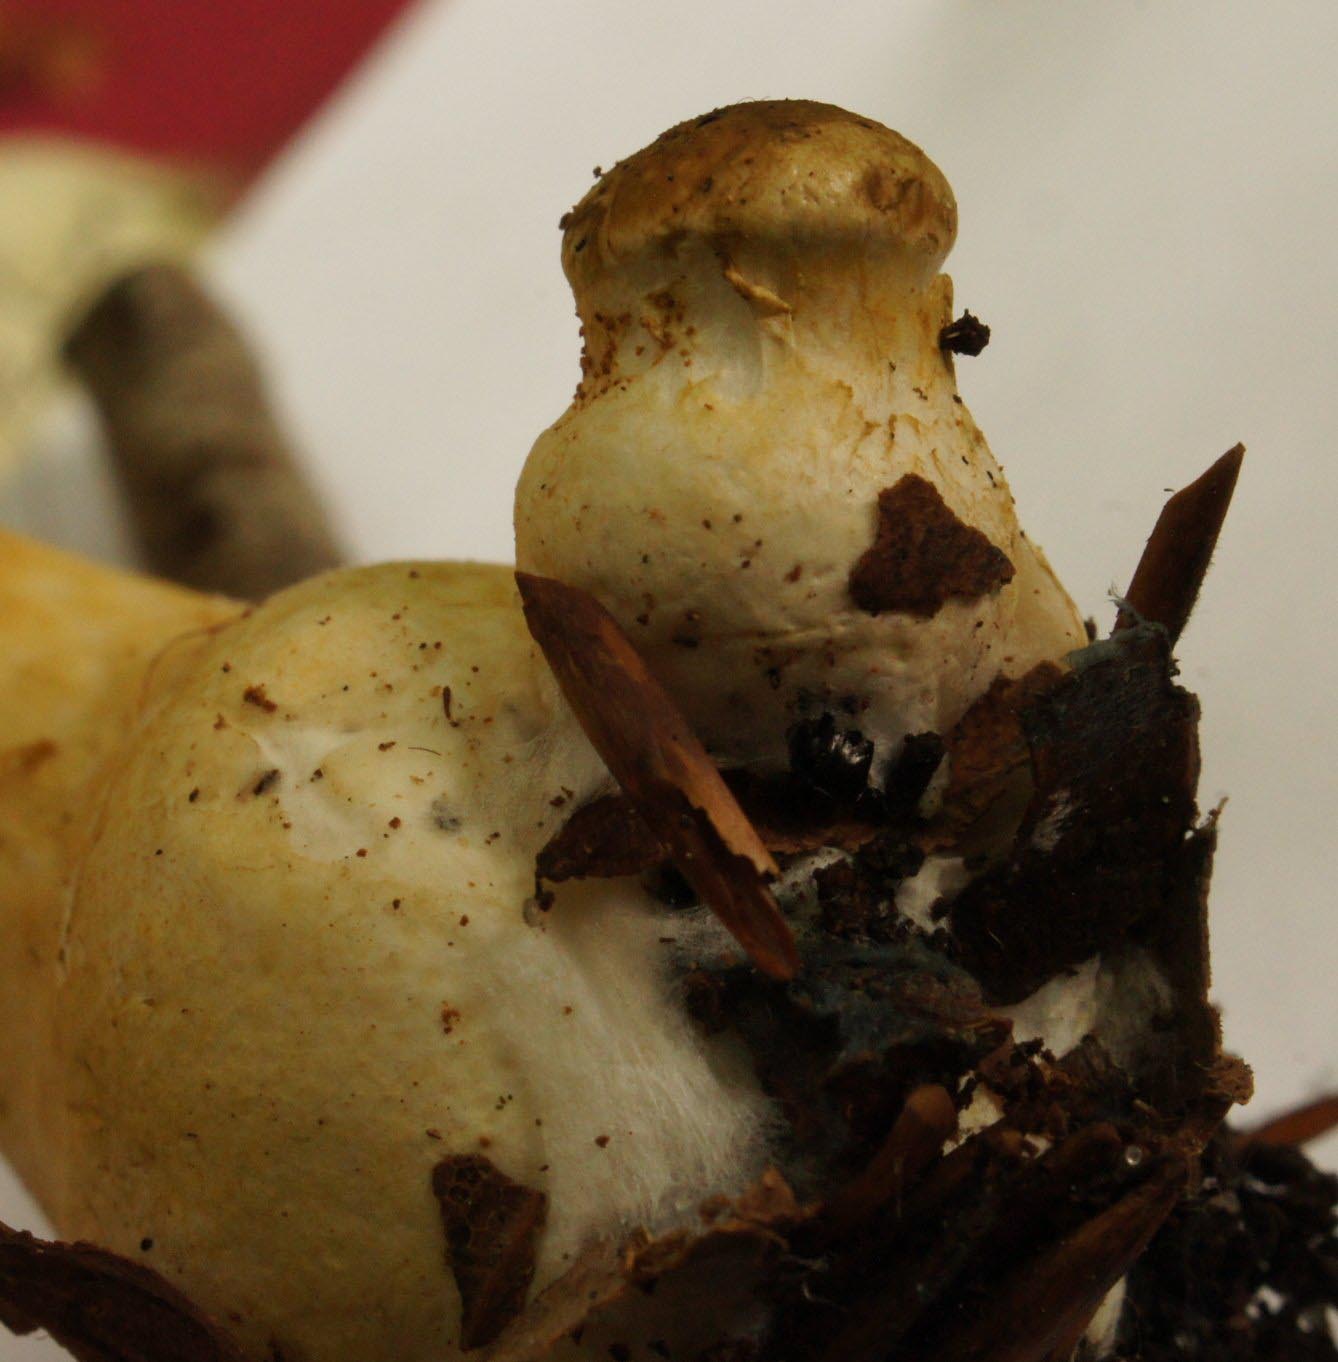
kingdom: Fungi
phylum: Basidiomycota
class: Agaricomycetes
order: Agaricales
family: Cortinariaceae
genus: Phlegmacium
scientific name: Phlegmacium cliduchus
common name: majs-slørhat
